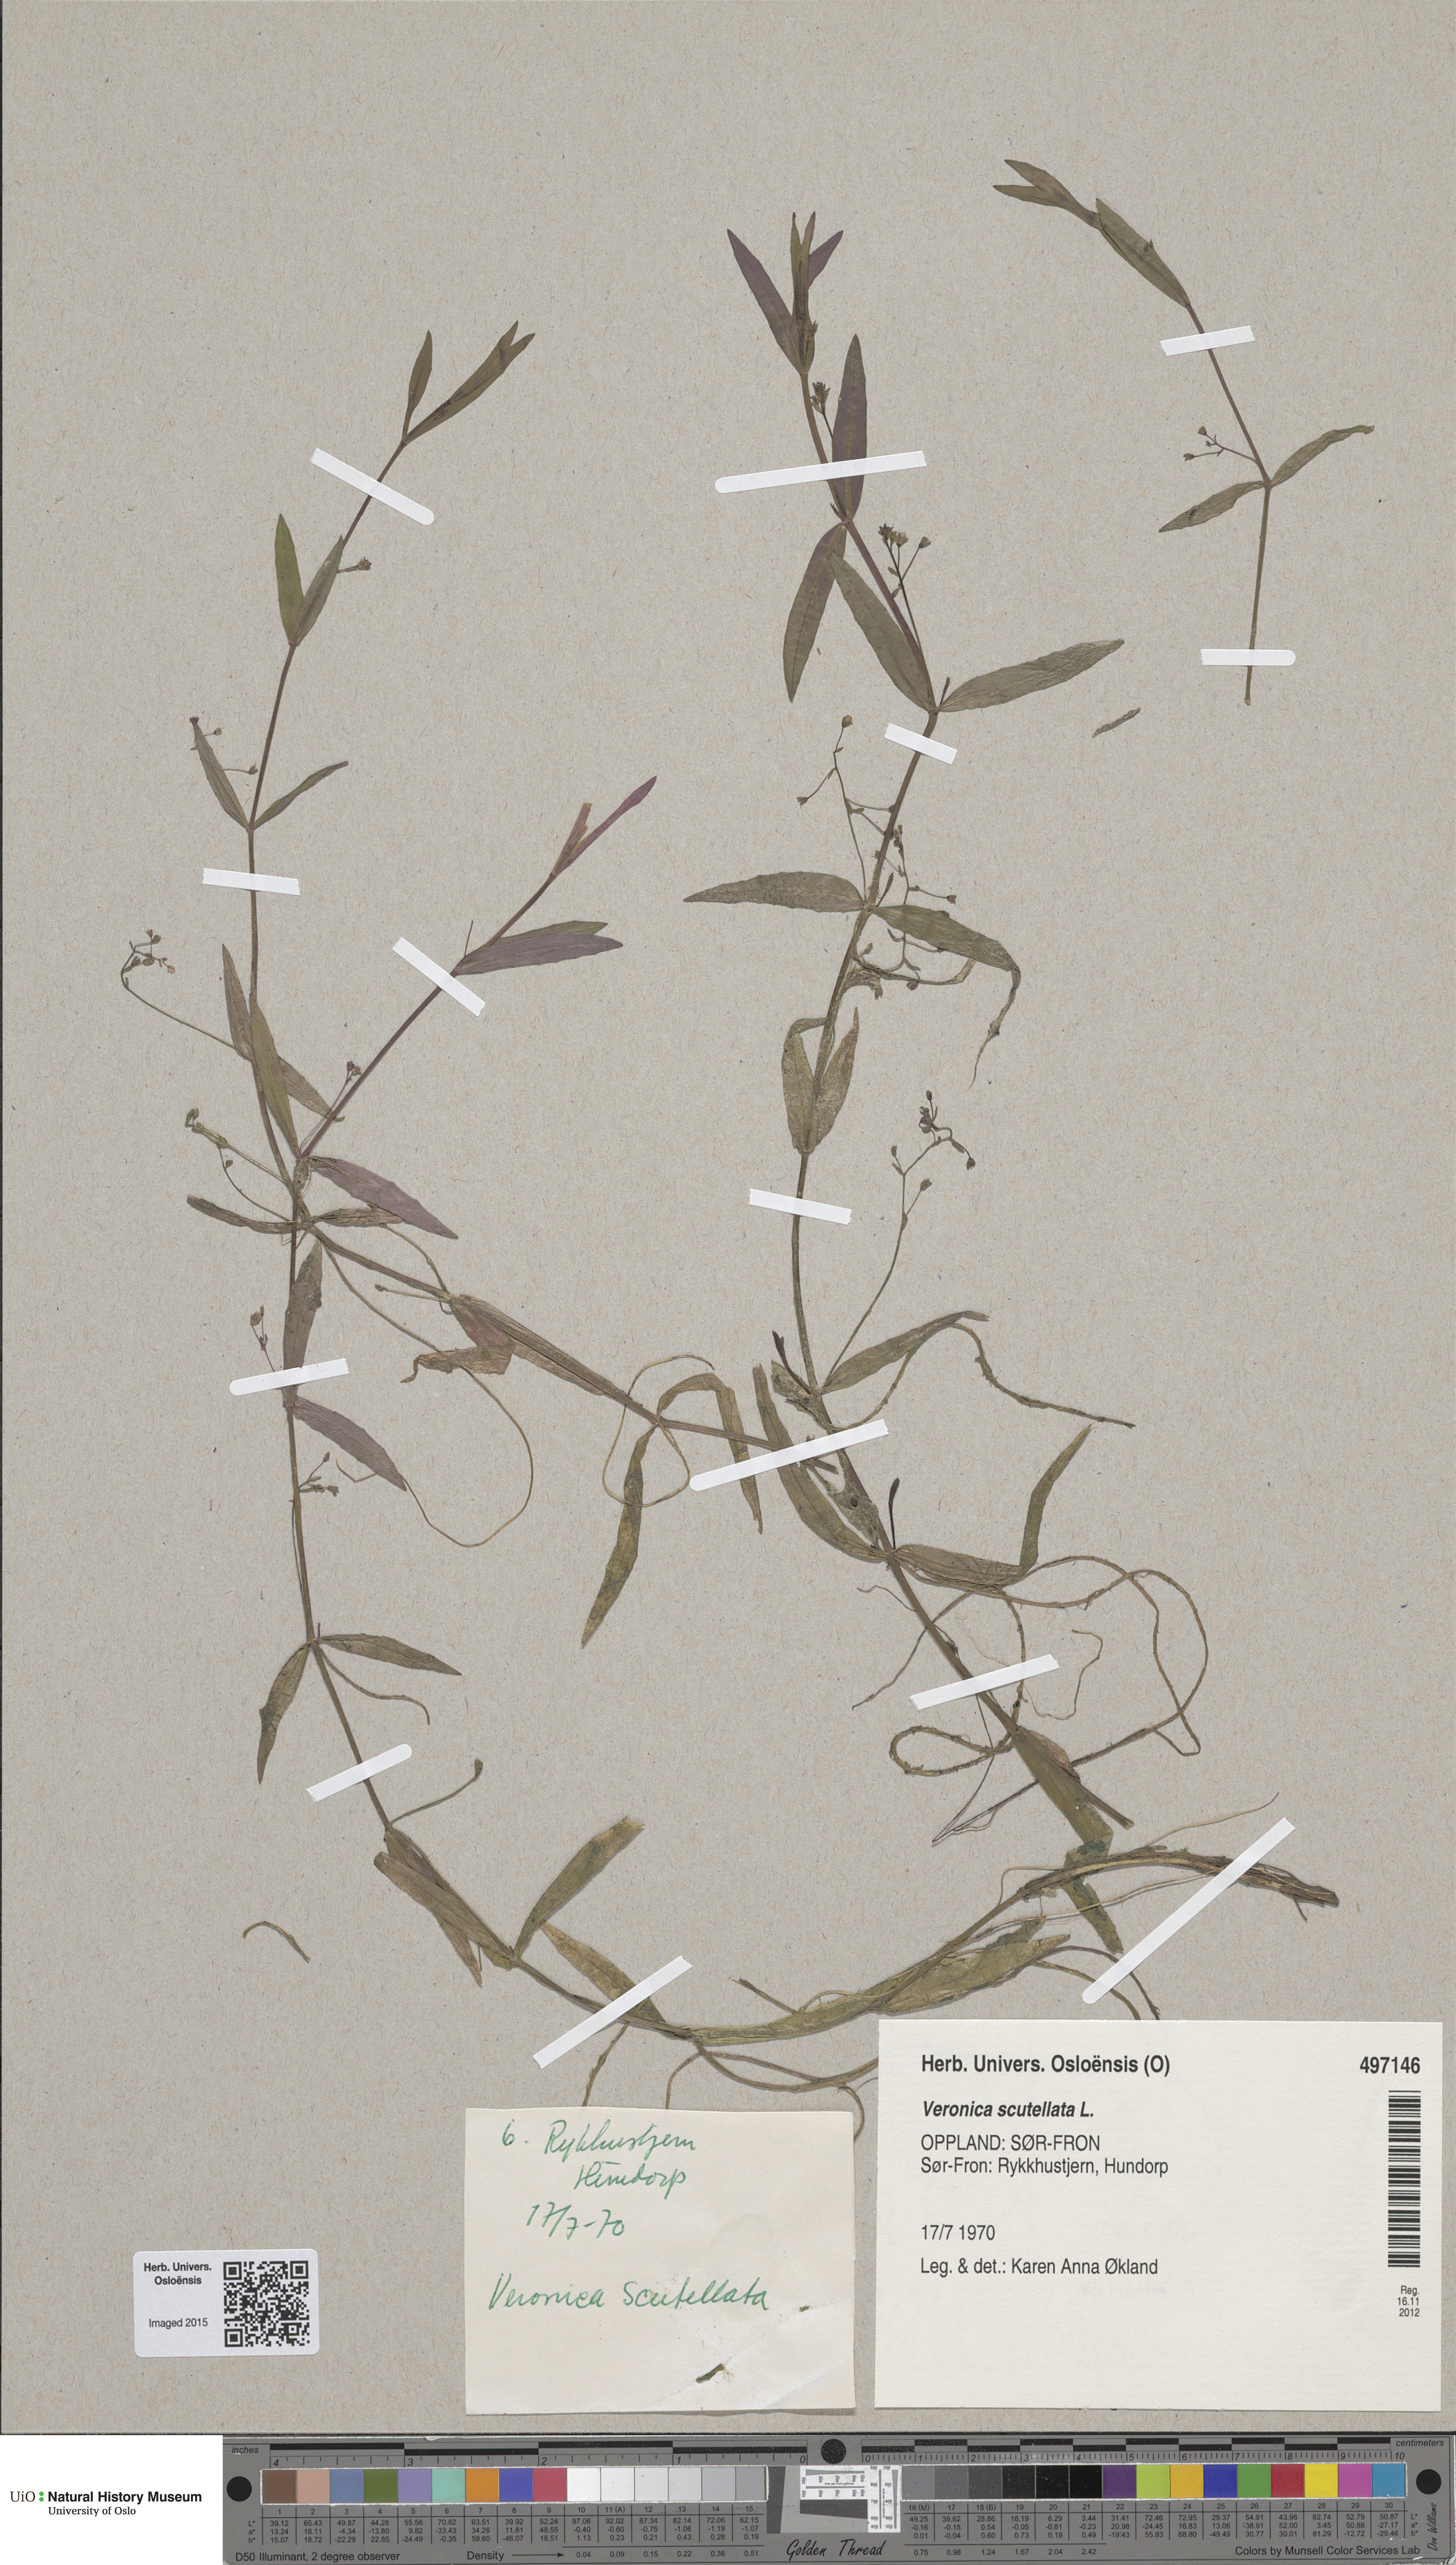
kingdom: Plantae
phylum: Tracheophyta
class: Magnoliopsida
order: Lamiales
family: Plantaginaceae
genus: Veronica
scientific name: Veronica scutellata
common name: Marsh speedwell
